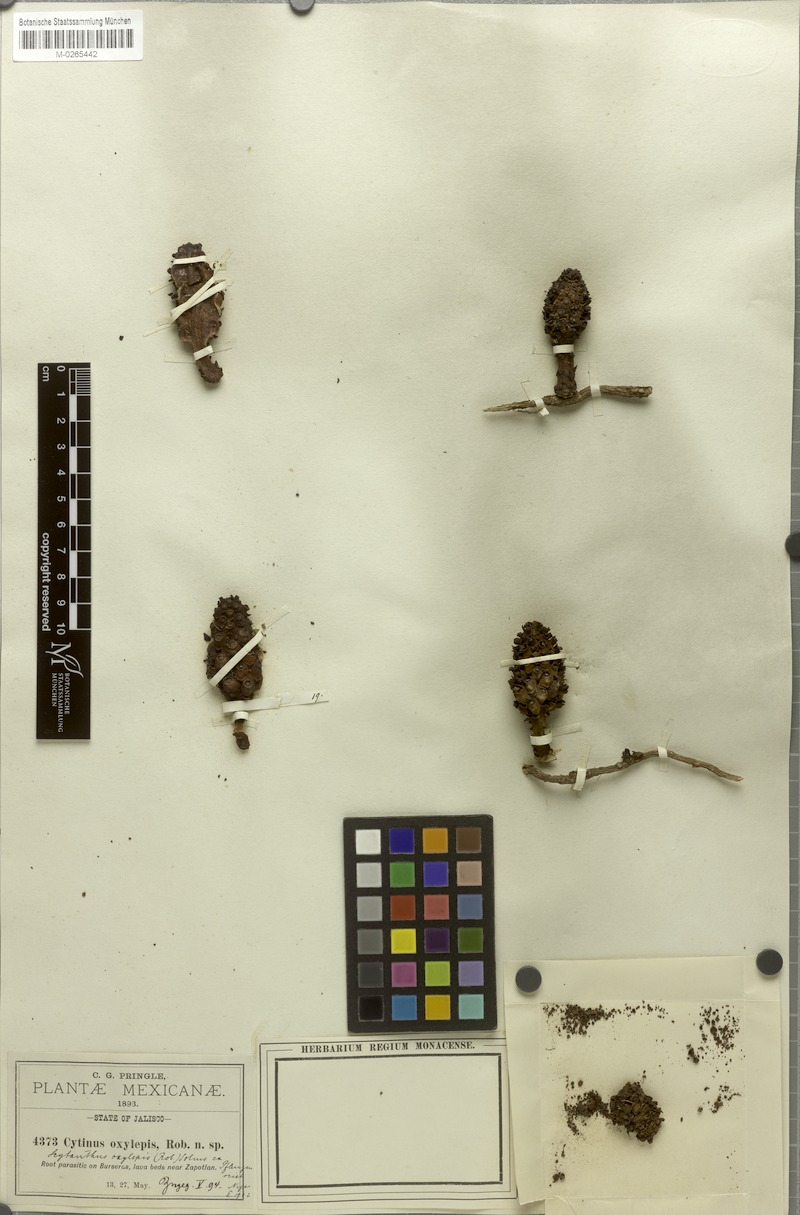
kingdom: Plantae
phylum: Tracheophyta
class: Magnoliopsida
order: Malvales
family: Cytinaceae
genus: Bdallophyton
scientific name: Bdallophyton oxylepis
